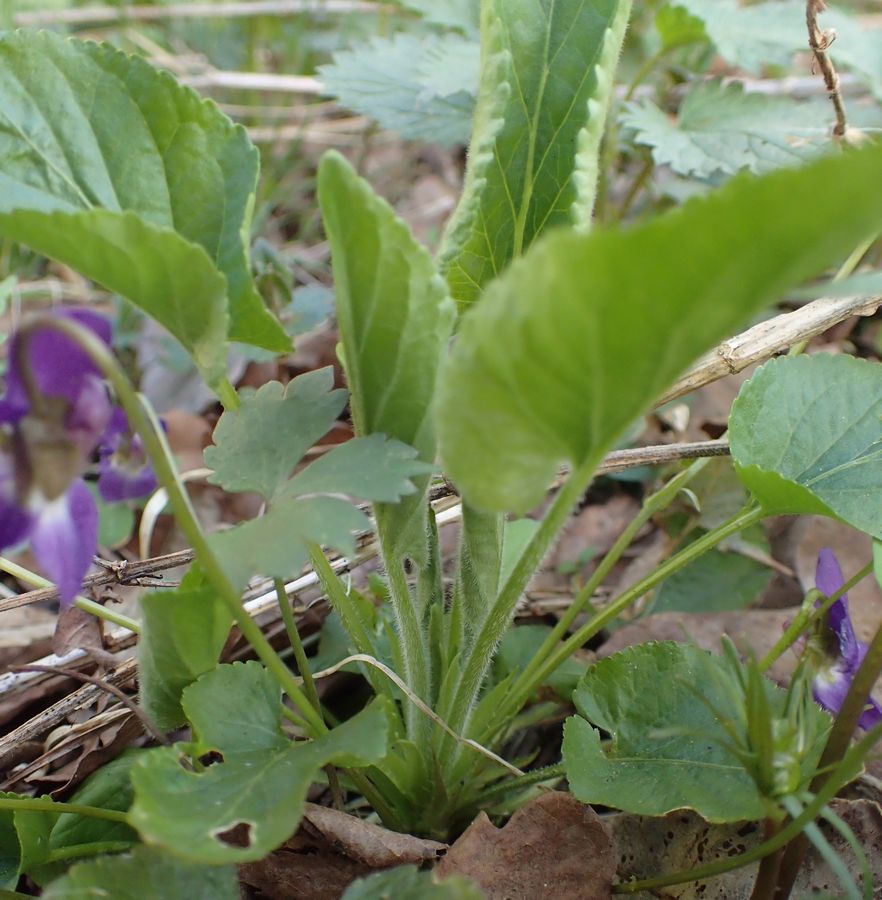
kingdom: Plantae
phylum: Tracheophyta
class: Magnoliopsida
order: Malpighiales
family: Violaceae
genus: Viola
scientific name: Viola collina
